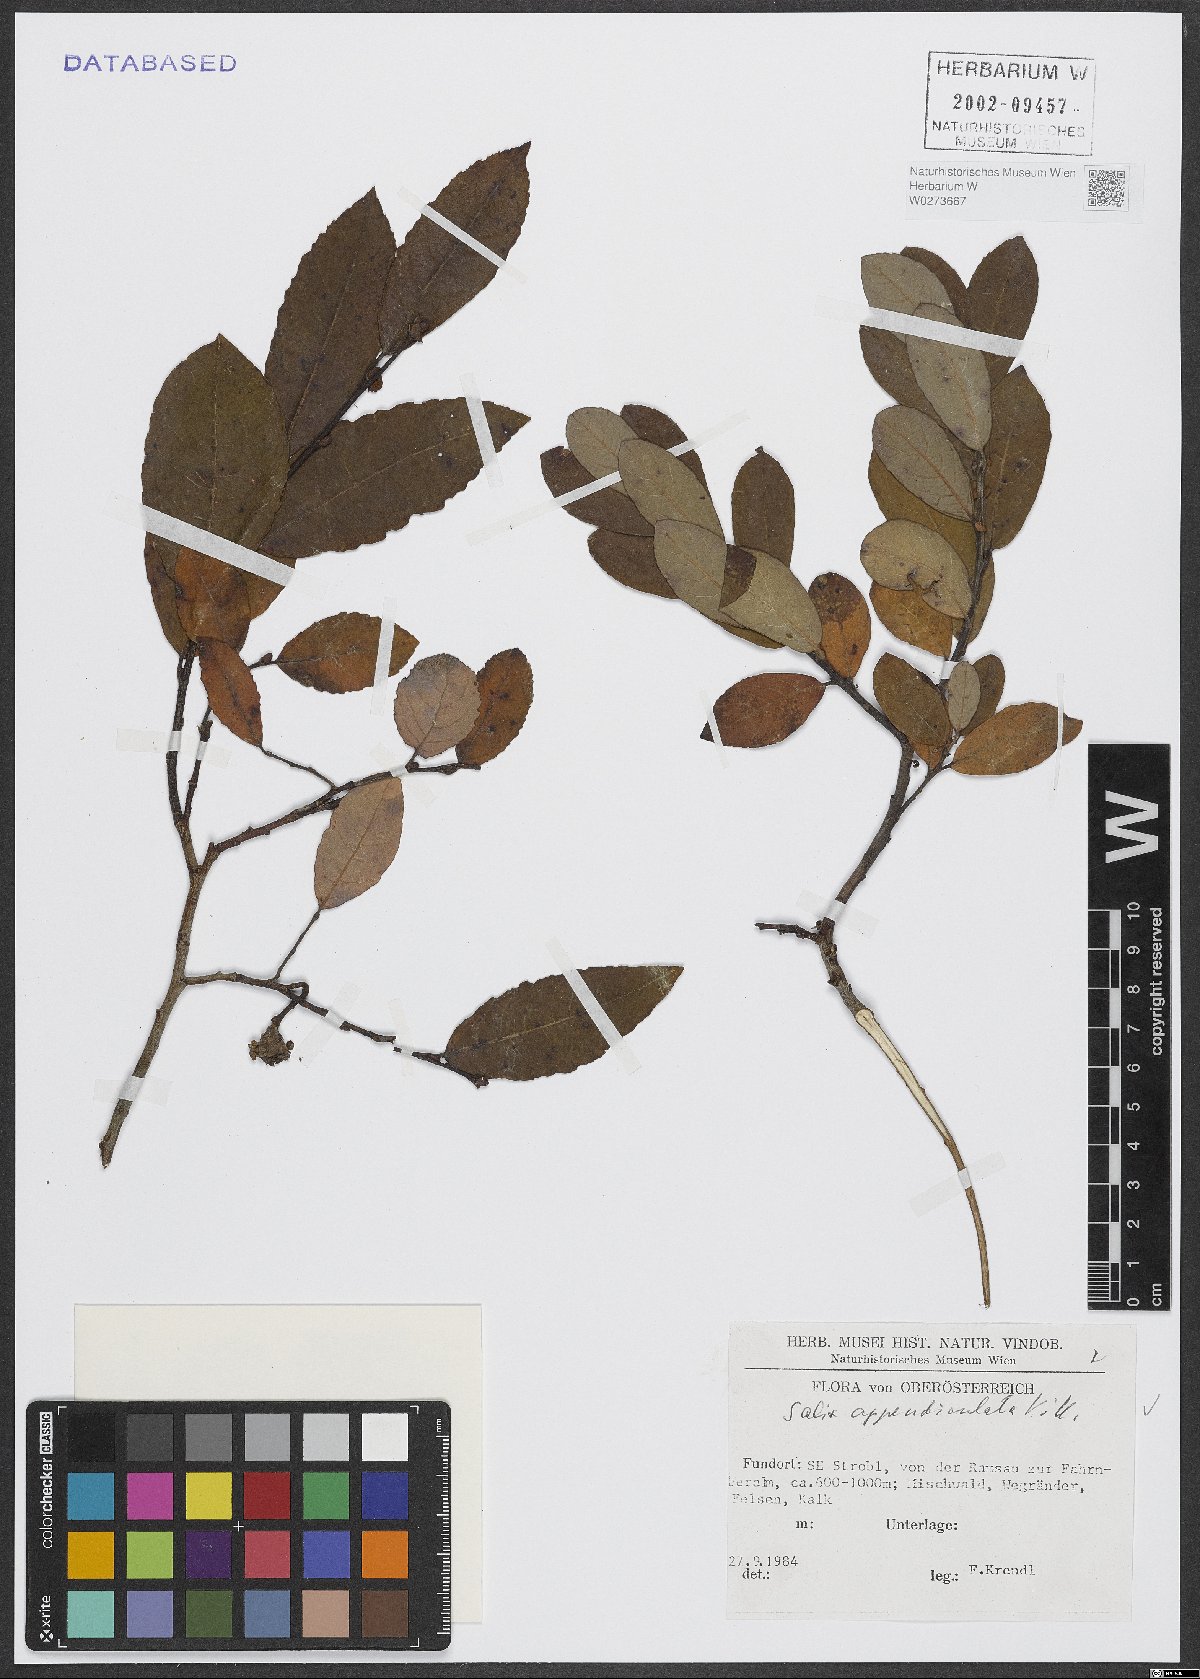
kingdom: Plantae
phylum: Tracheophyta
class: Magnoliopsida
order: Malpighiales
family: Salicaceae
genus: Salix
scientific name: Salix appendiculata
